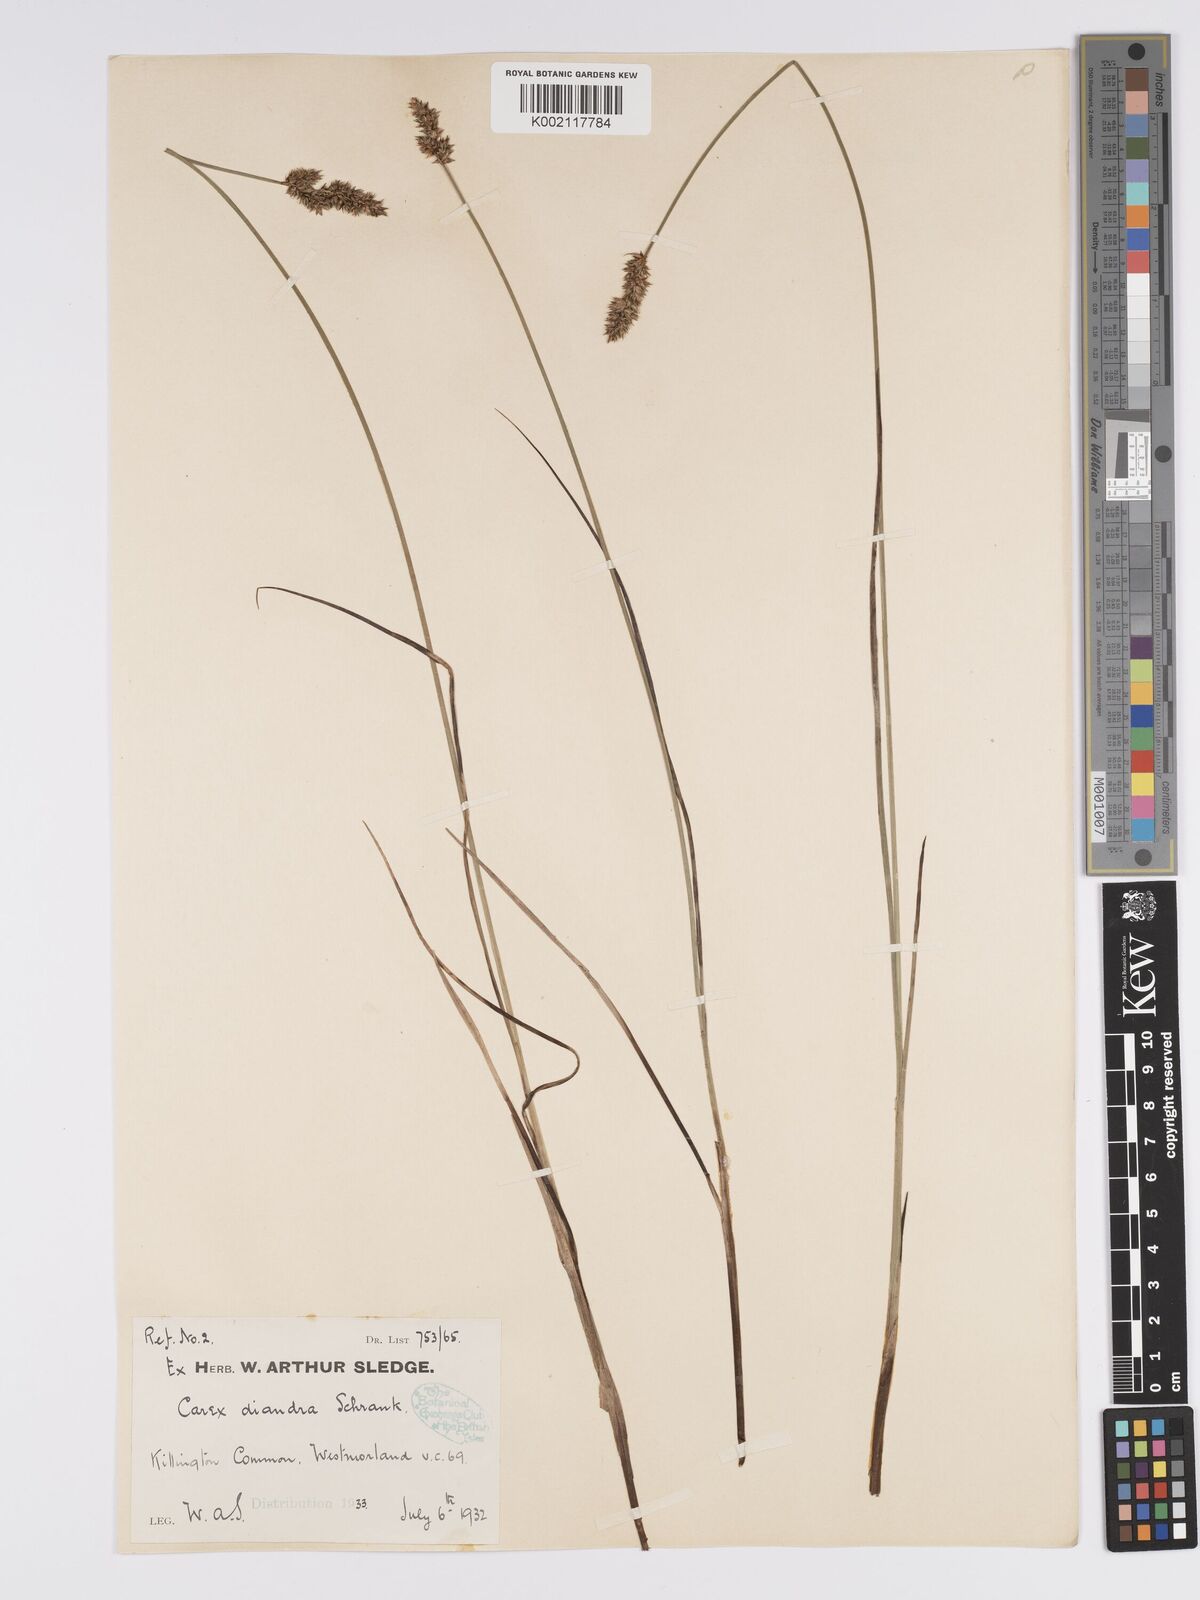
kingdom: Plantae
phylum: Tracheophyta
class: Liliopsida
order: Poales
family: Cyperaceae
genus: Carex
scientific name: Carex diandra
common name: Lesser tussock-sedge
